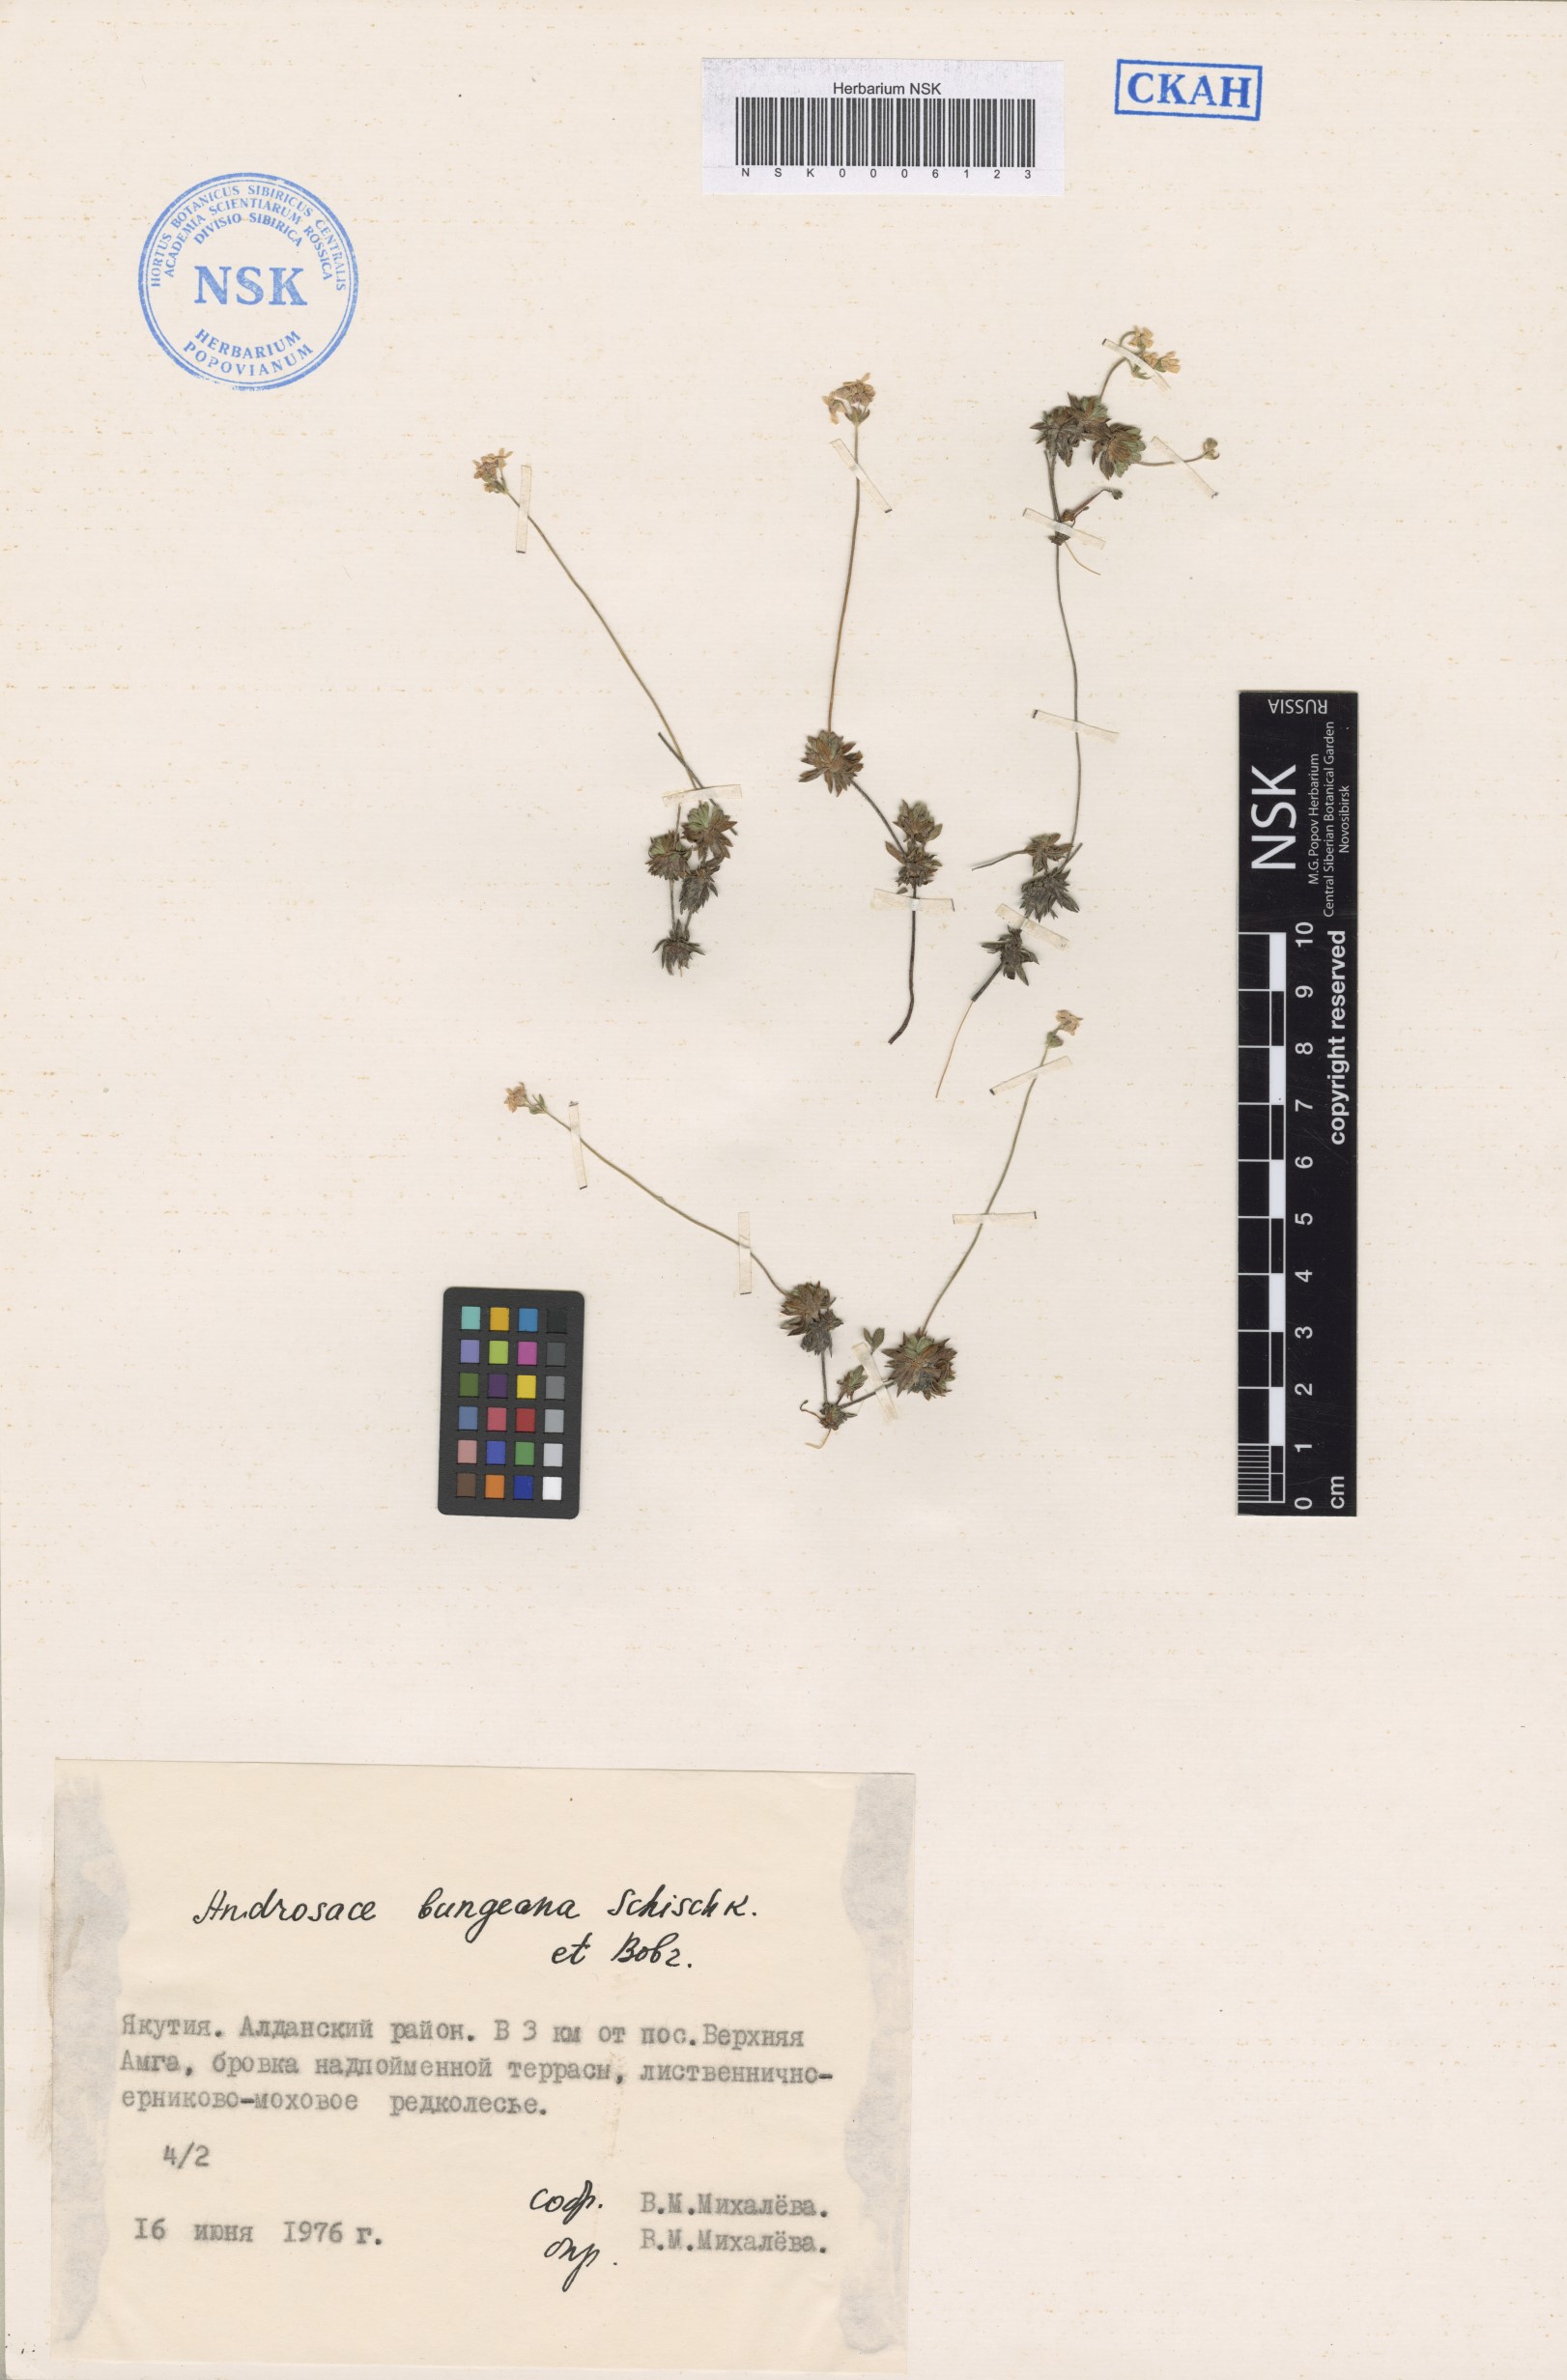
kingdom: Plantae
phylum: Tracheophyta
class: Magnoliopsida
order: Ericales
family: Primulaceae
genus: Androsace
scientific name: Androsace bungeana
